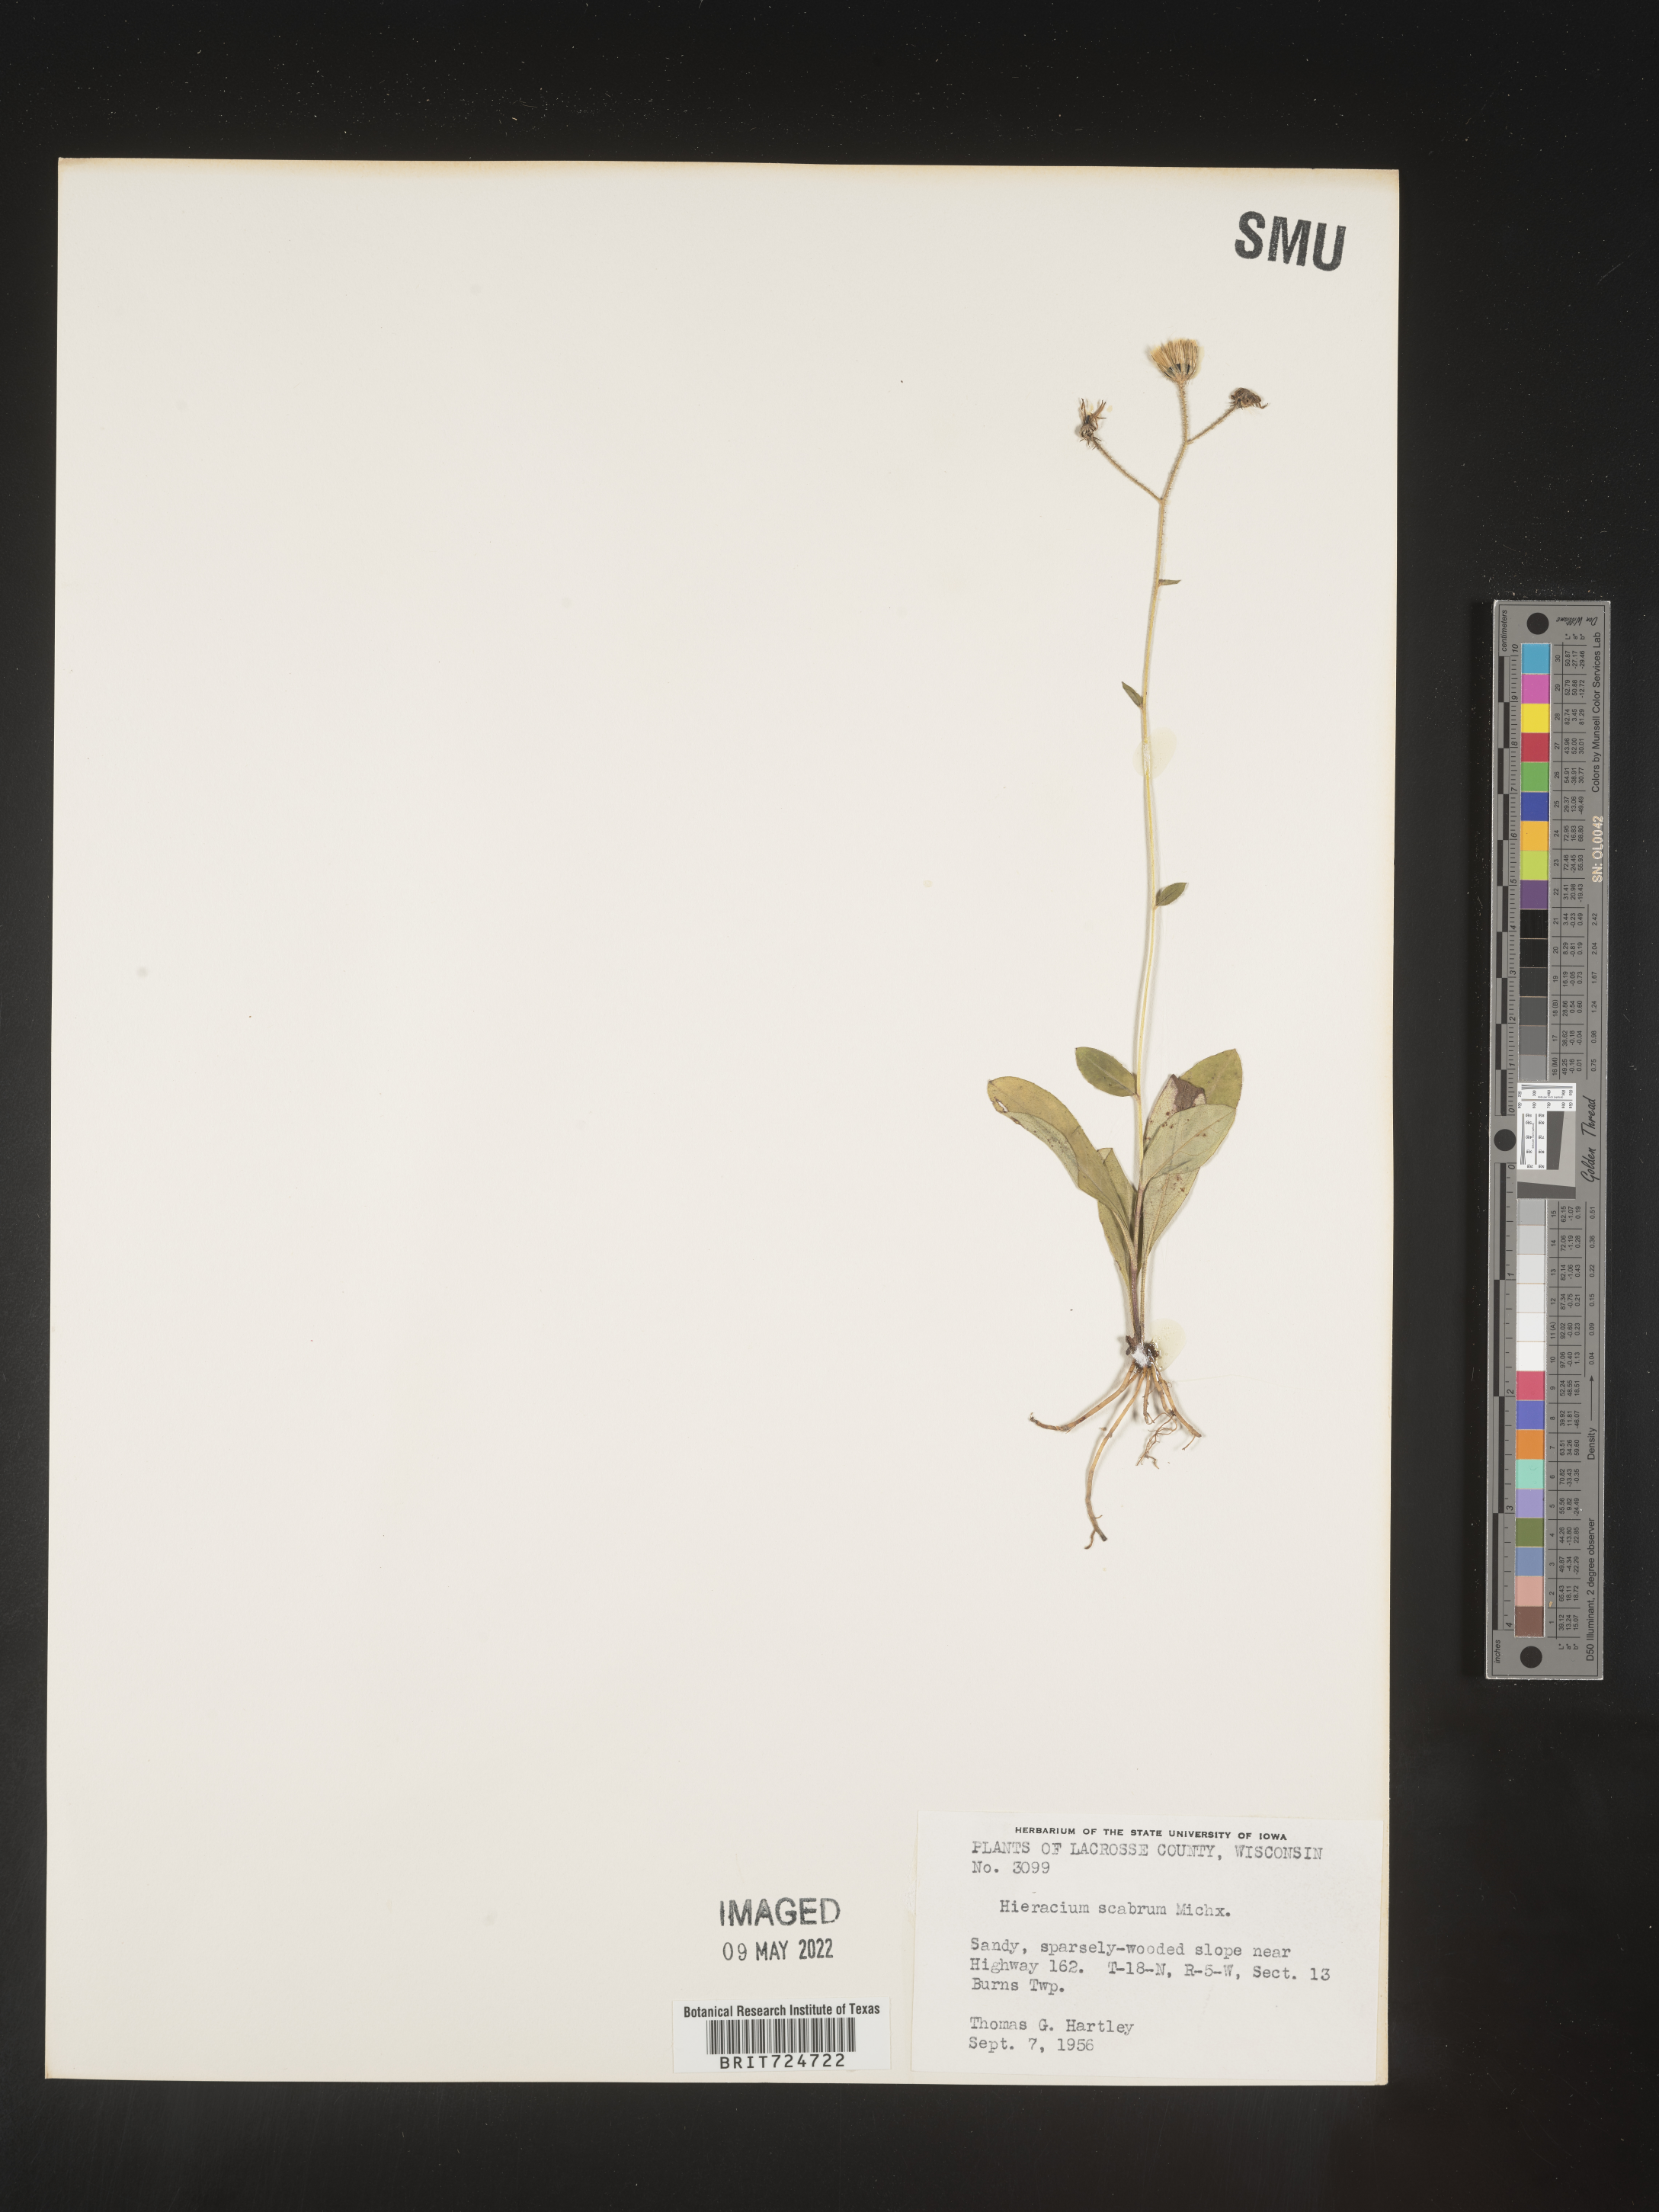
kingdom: Plantae
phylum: Tracheophyta
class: Magnoliopsida
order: Asterales
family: Asteraceae
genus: Hieracium
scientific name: Hieracium scabrum
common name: Rough hawkweed
